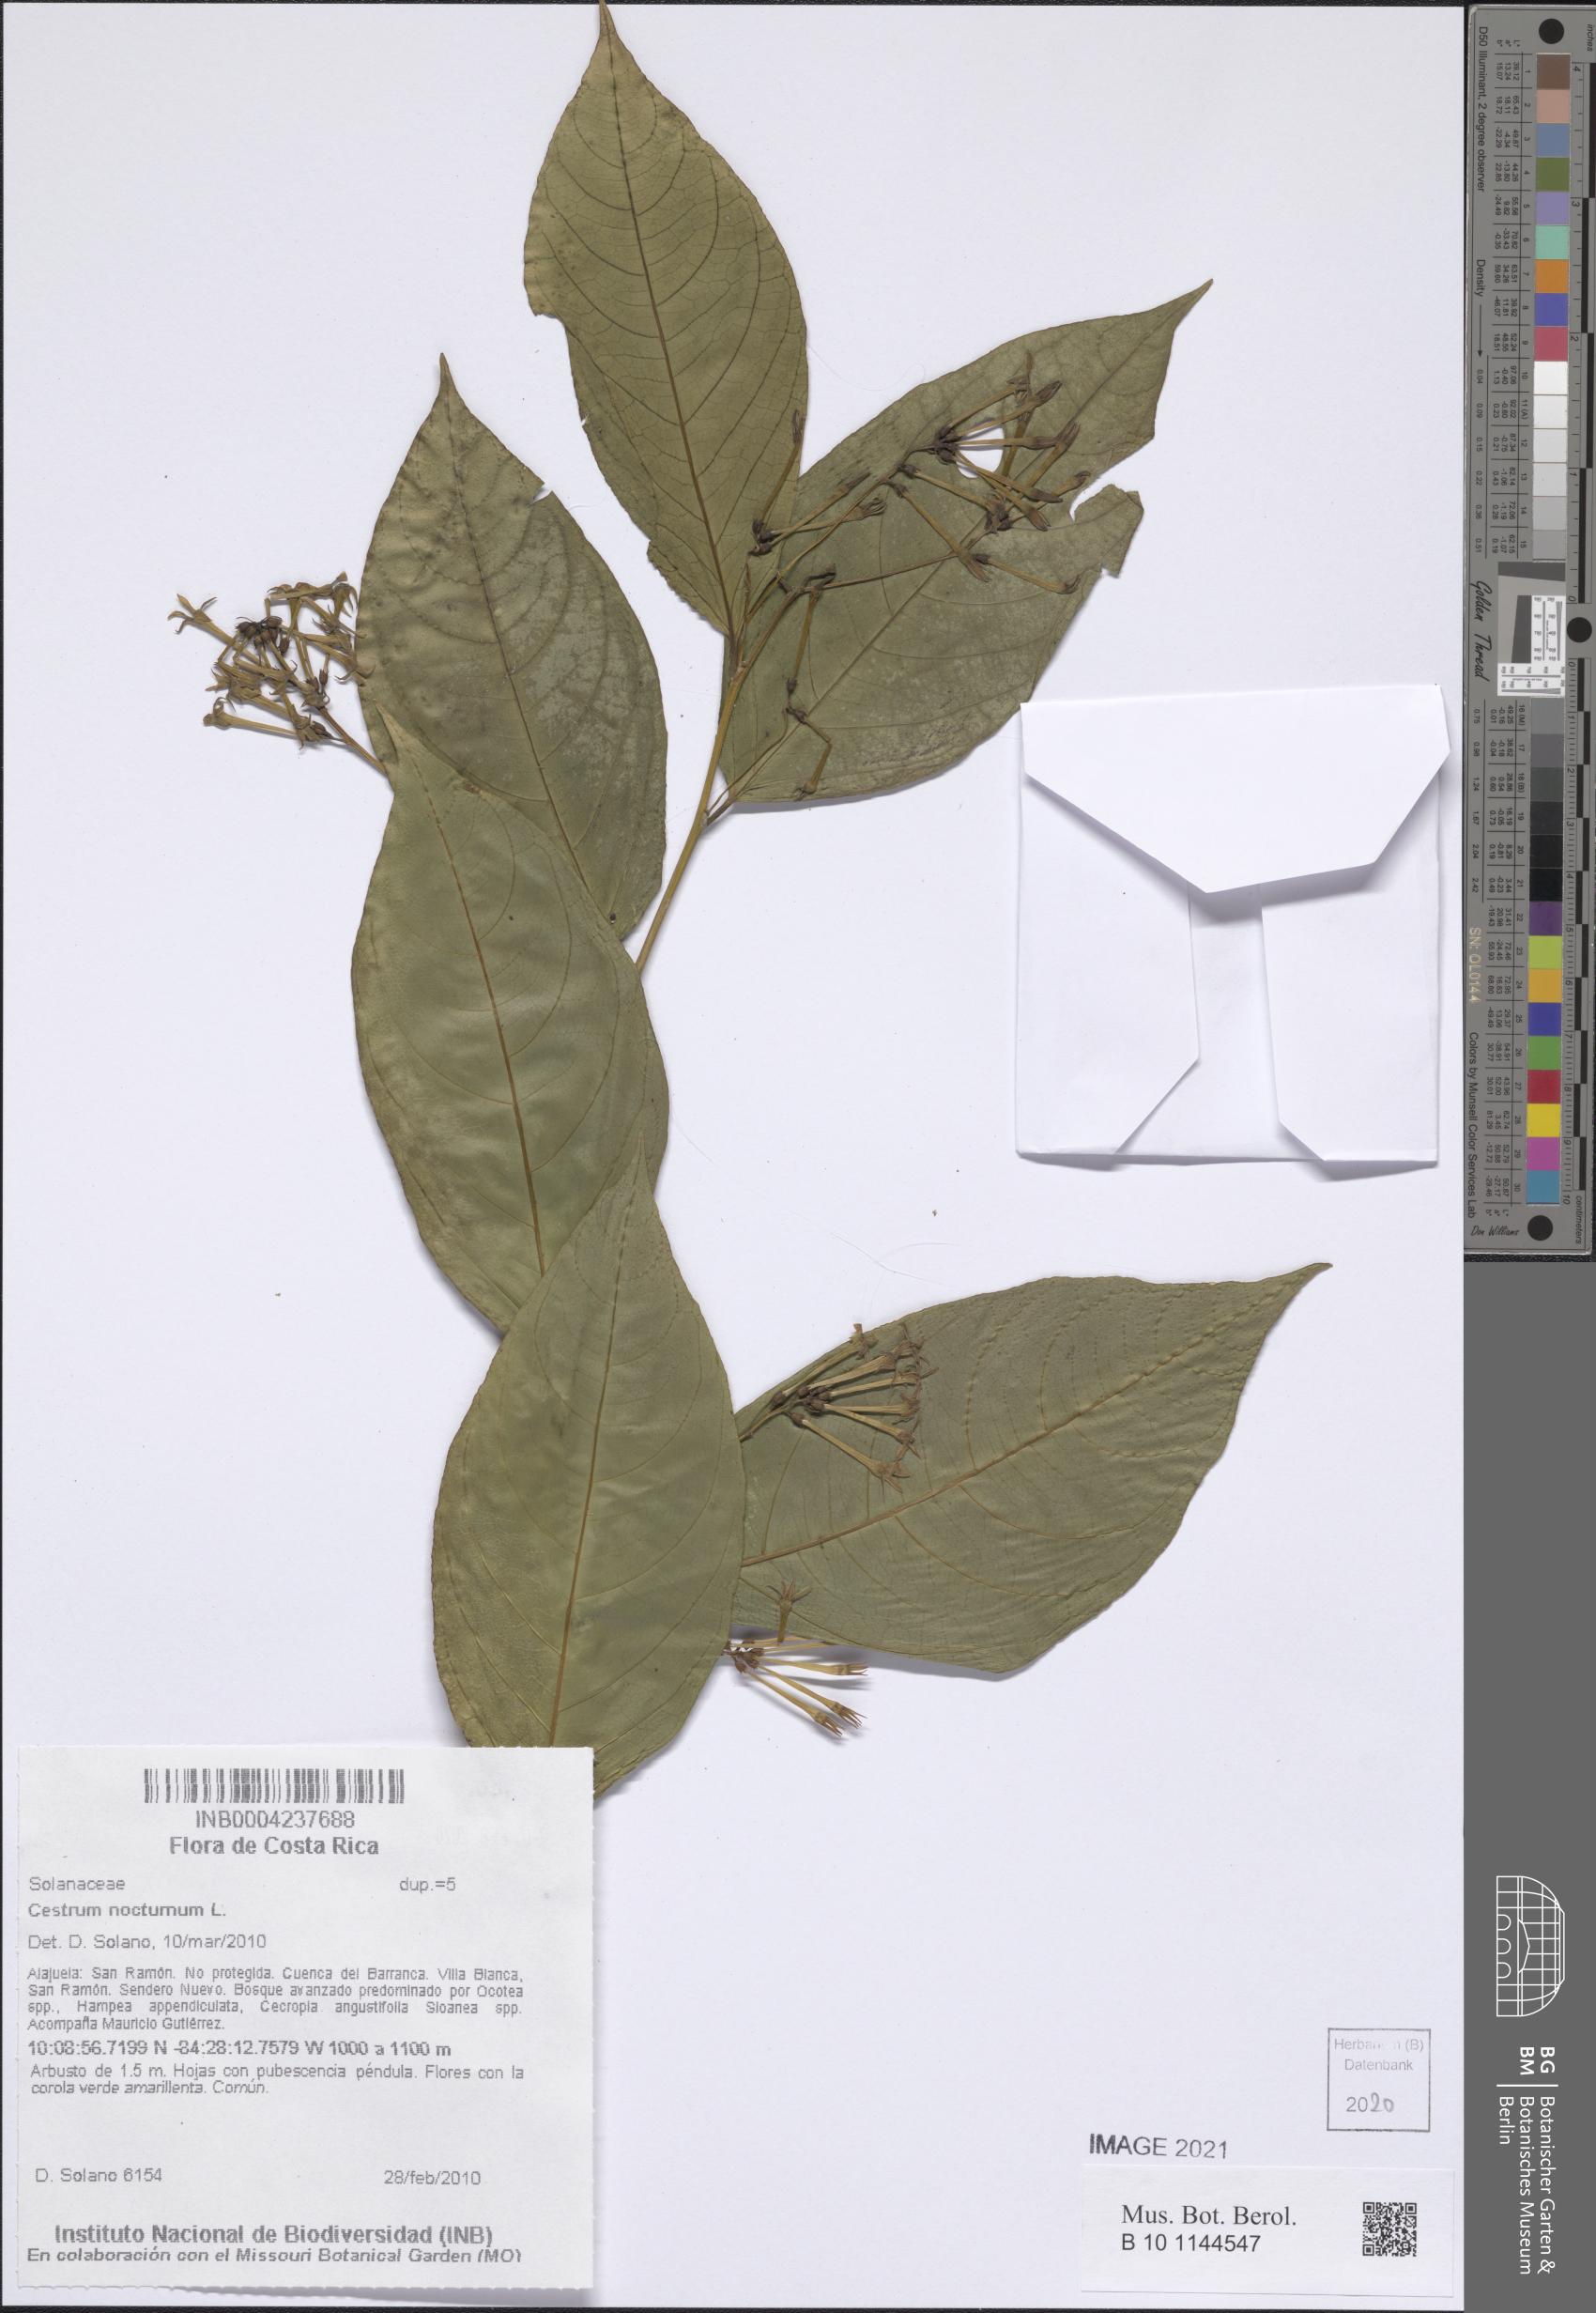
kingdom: Plantae
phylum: Tracheophyta
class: Magnoliopsida
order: Solanales
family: Solanaceae
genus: Cestrum
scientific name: Cestrum nocturnum
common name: Night jessamine
